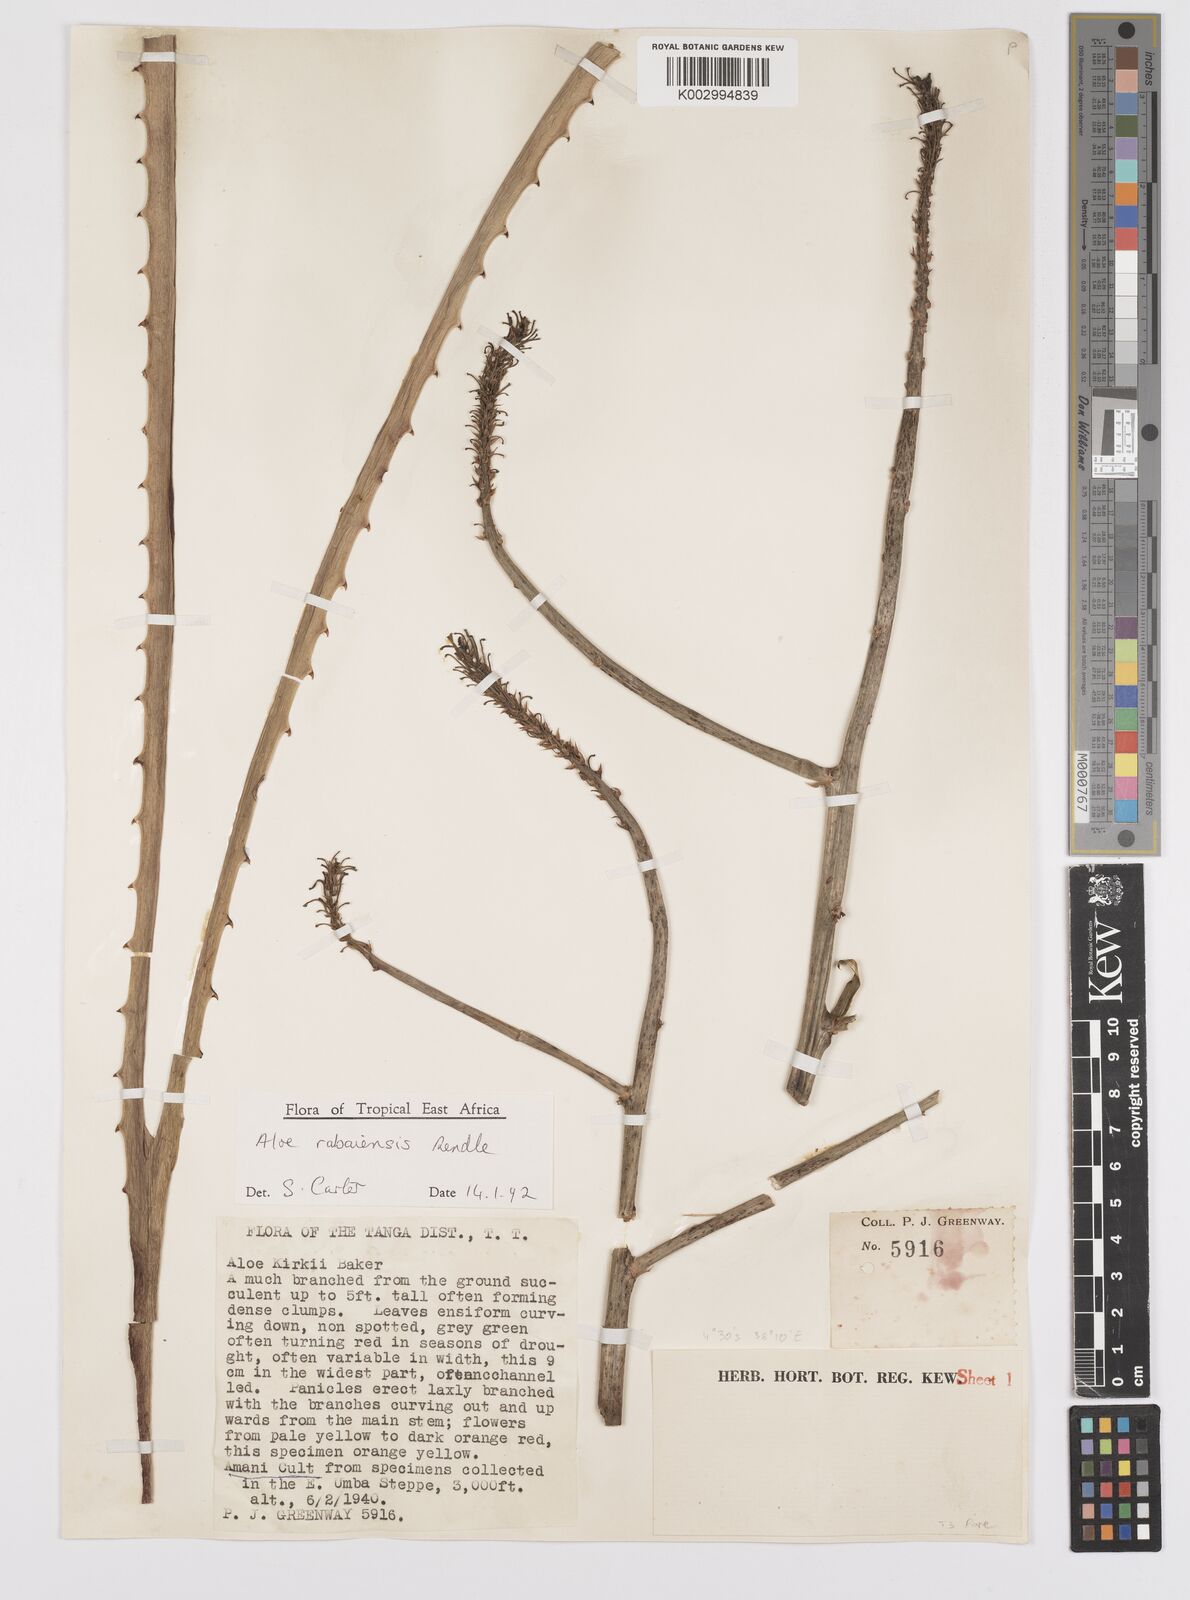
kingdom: Plantae
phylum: Tracheophyta
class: Liliopsida
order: Asparagales
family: Asphodelaceae
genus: Aloe
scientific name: Aloe rabaiensis
